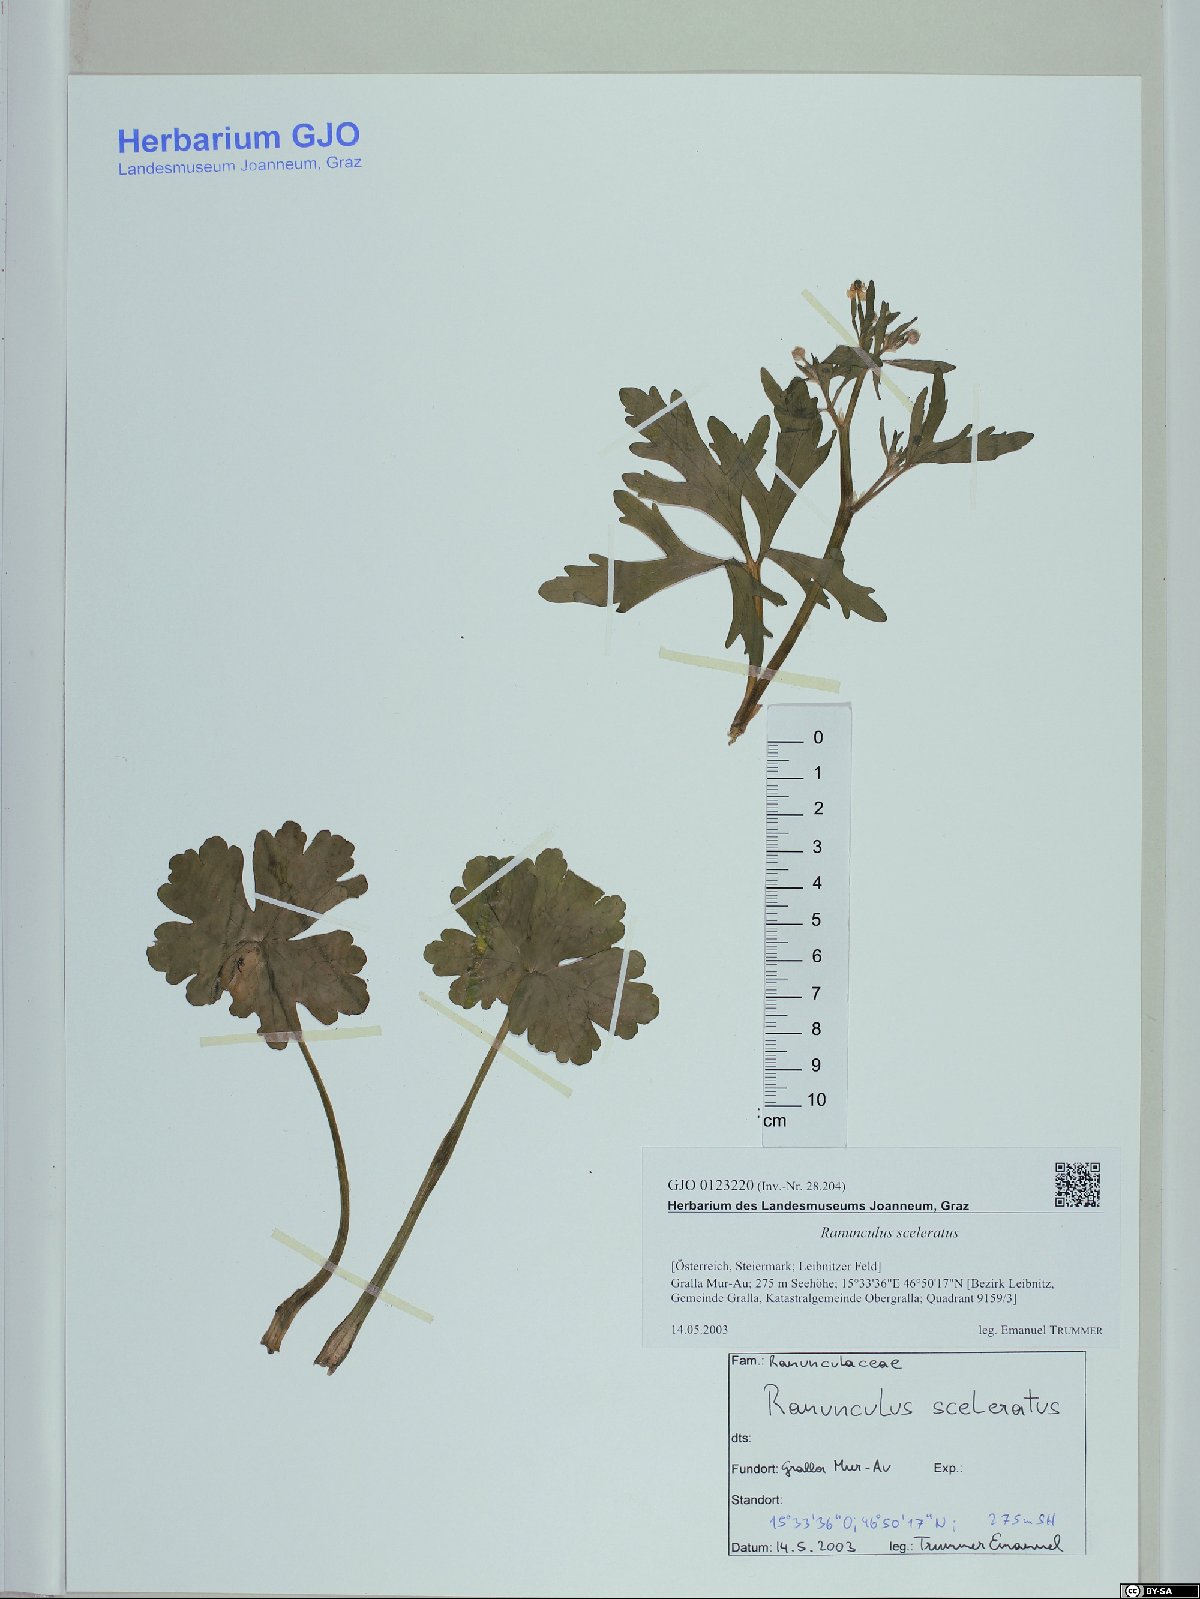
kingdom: Plantae
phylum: Tracheophyta
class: Magnoliopsida
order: Ranunculales
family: Ranunculaceae
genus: Ranunculus
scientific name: Ranunculus sceleratus
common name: Celery-leaved buttercup
